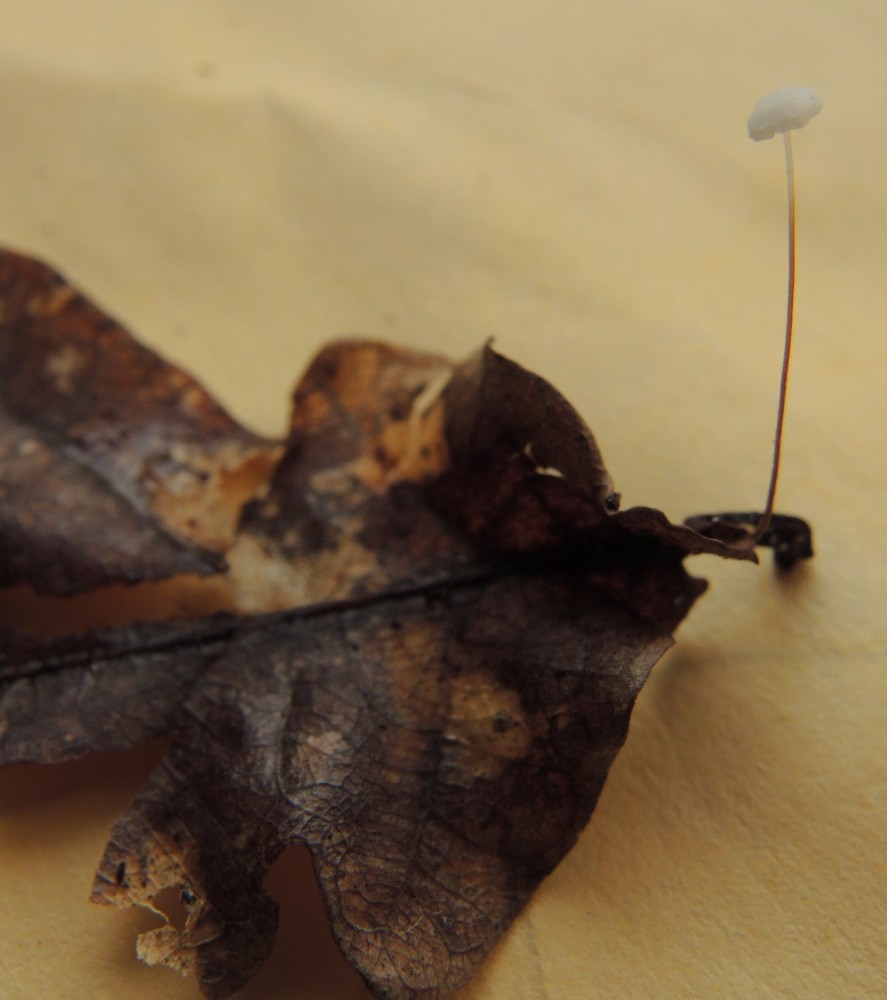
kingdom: Fungi
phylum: Basidiomycota
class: Agaricomycetes
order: Agaricales
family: Physalacriaceae
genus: Rhizomarasmius
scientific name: Rhizomarasmius setosus
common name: bøgeblads-bruskhat
